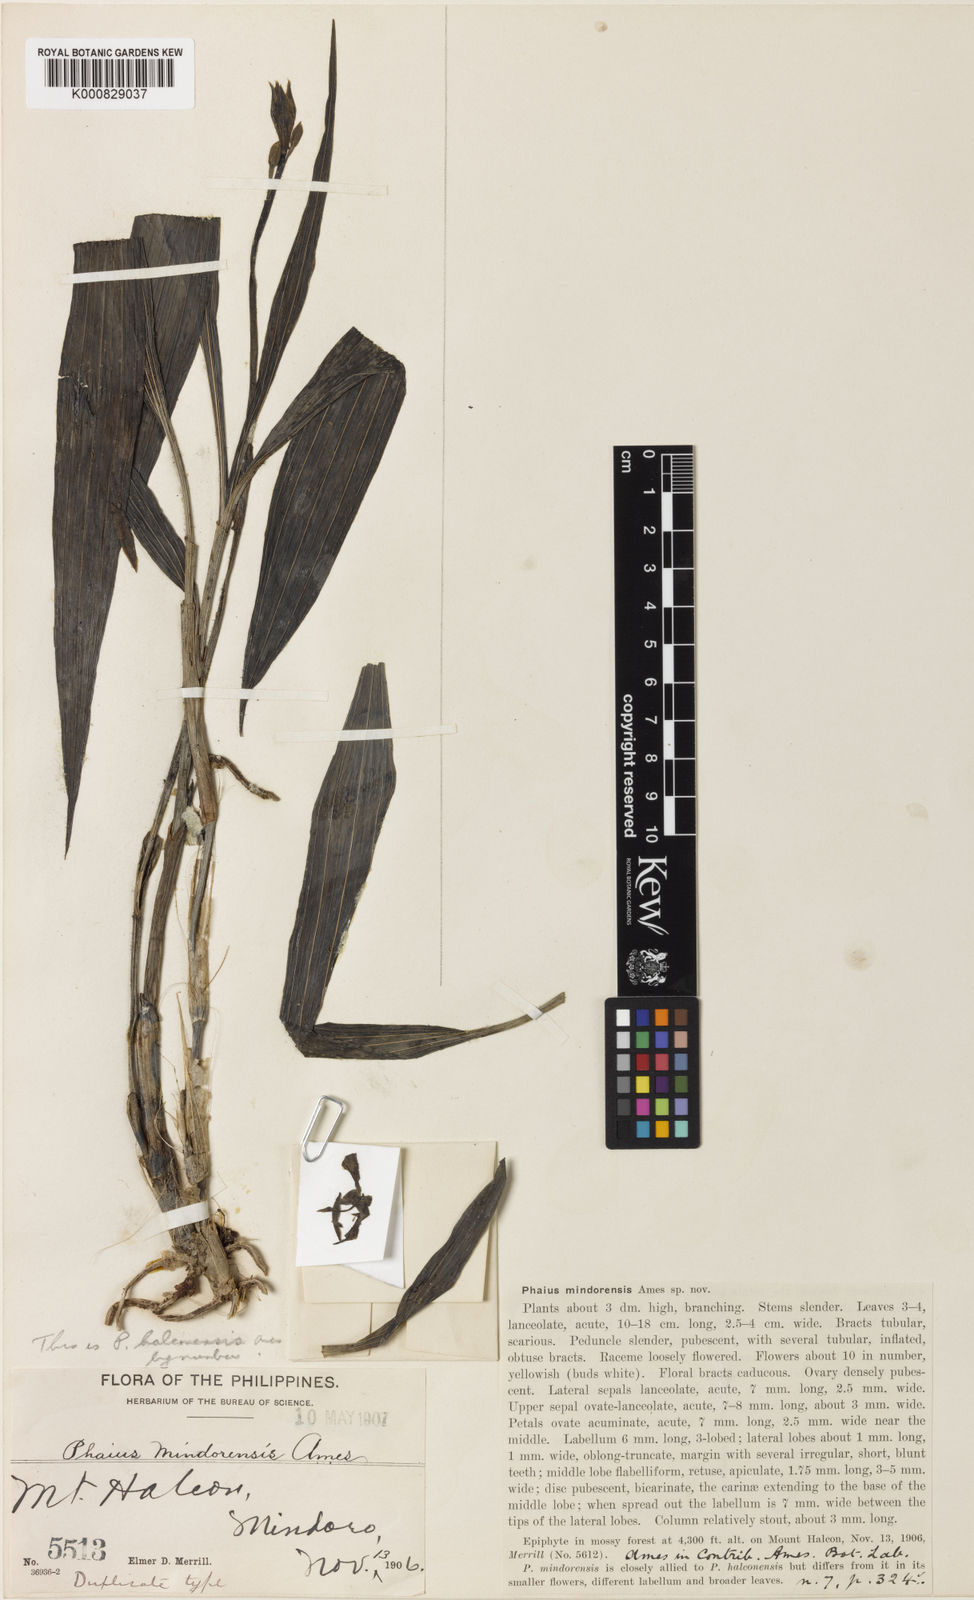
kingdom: Plantae
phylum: Tracheophyta
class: Liliopsida
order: Asparagales
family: Orchidaceae
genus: Calanthe
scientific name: Calanthe kooshunensis
